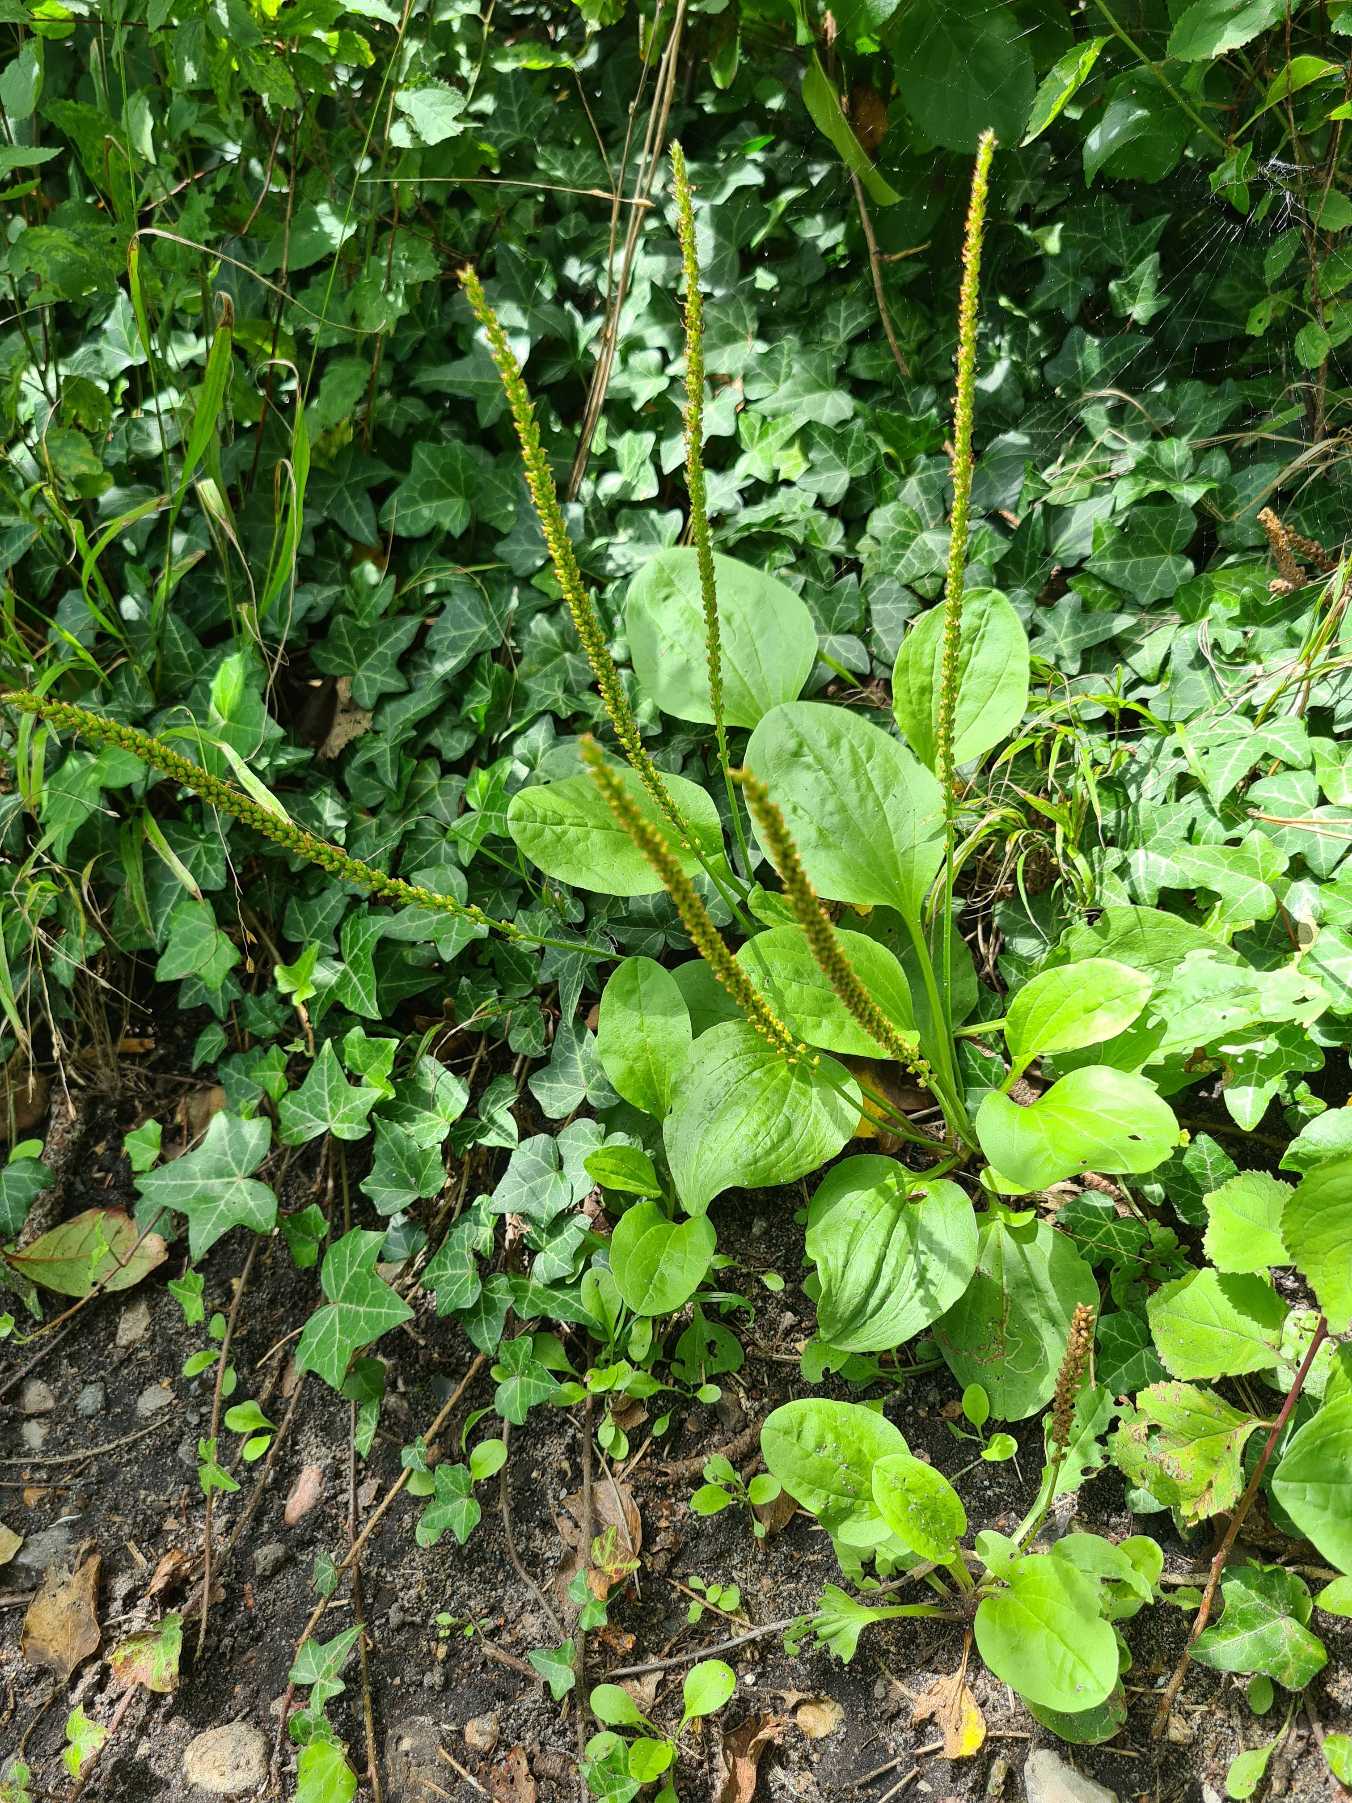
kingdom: Plantae
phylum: Tracheophyta
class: Magnoliopsida
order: Lamiales
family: Plantaginaceae
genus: Plantago
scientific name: Plantago major
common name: Glat vejbred
